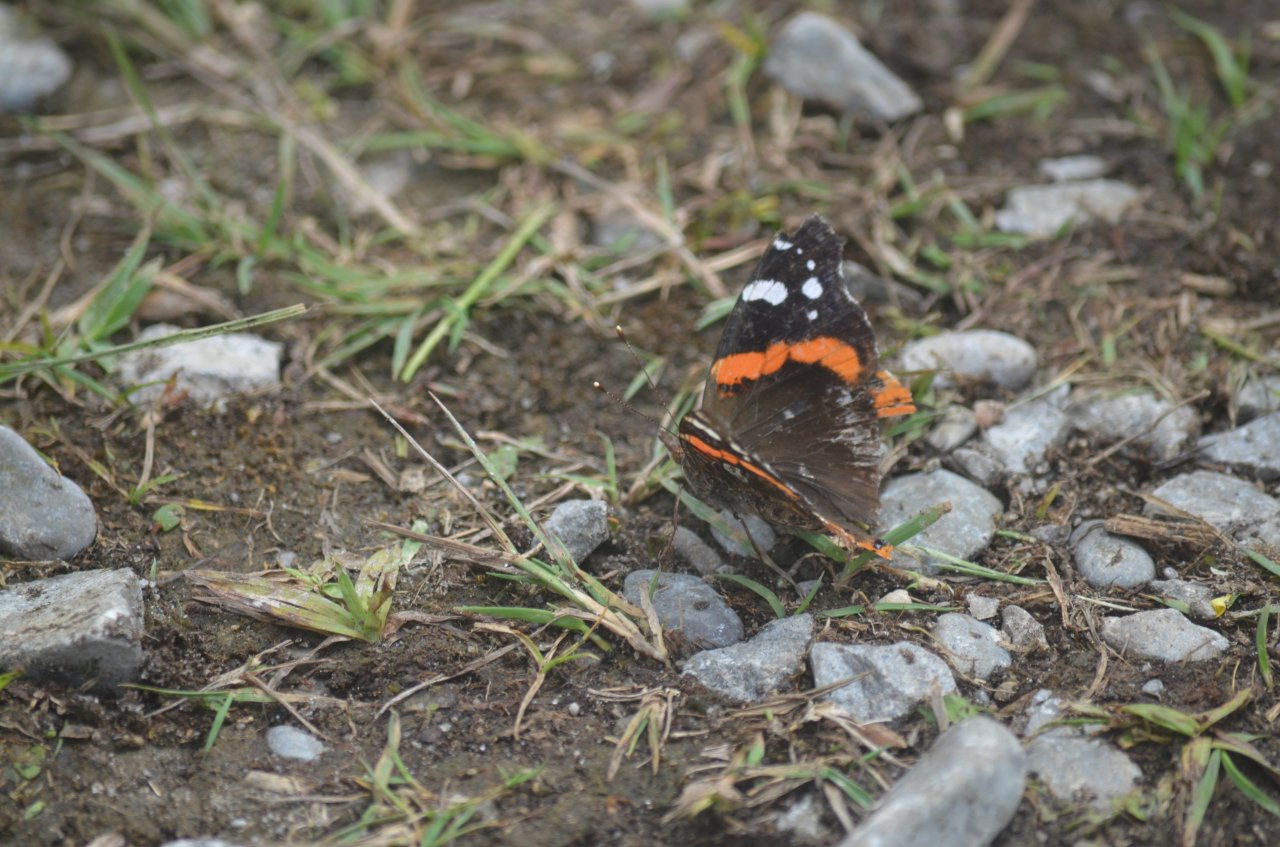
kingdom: Animalia
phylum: Arthropoda
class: Insecta
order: Lepidoptera
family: Nymphalidae
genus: Vanessa
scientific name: Vanessa atalanta
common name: Red Admiral
